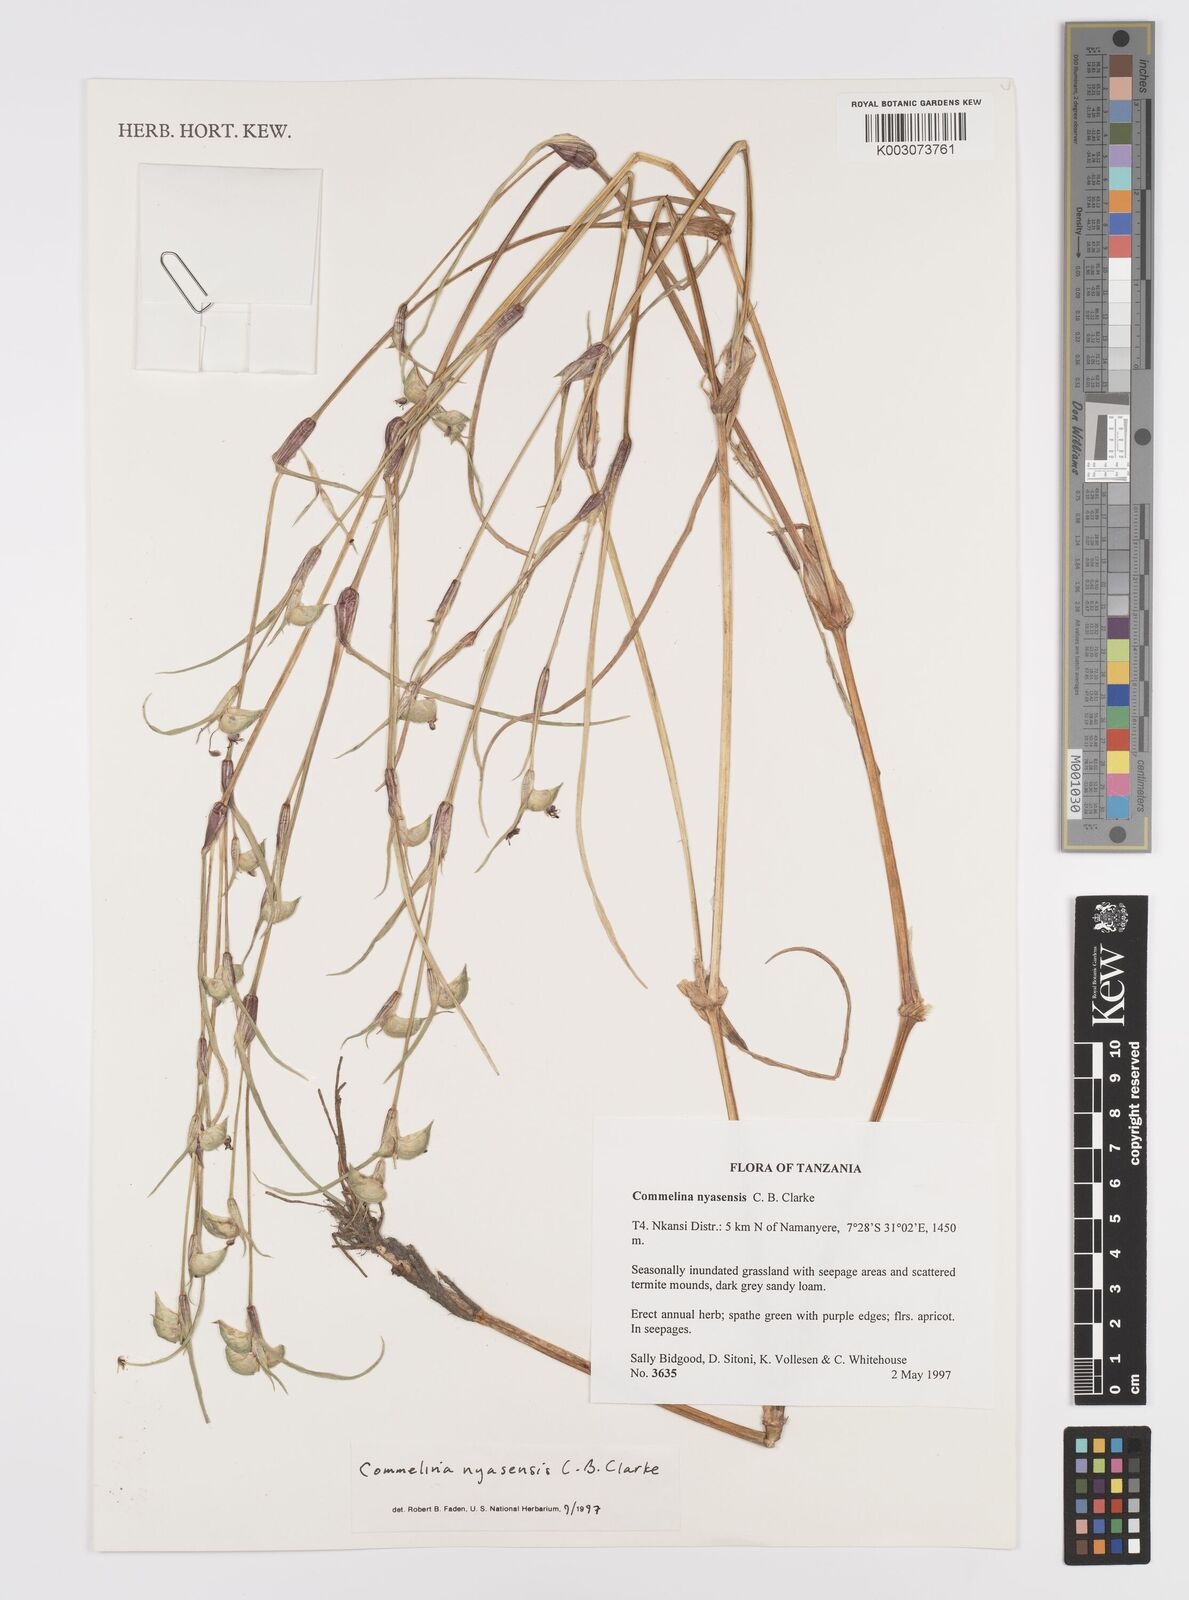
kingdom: Plantae
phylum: Tracheophyta
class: Liliopsida
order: Commelinales
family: Commelinaceae
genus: Commelina
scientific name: Commelina nyasensis
